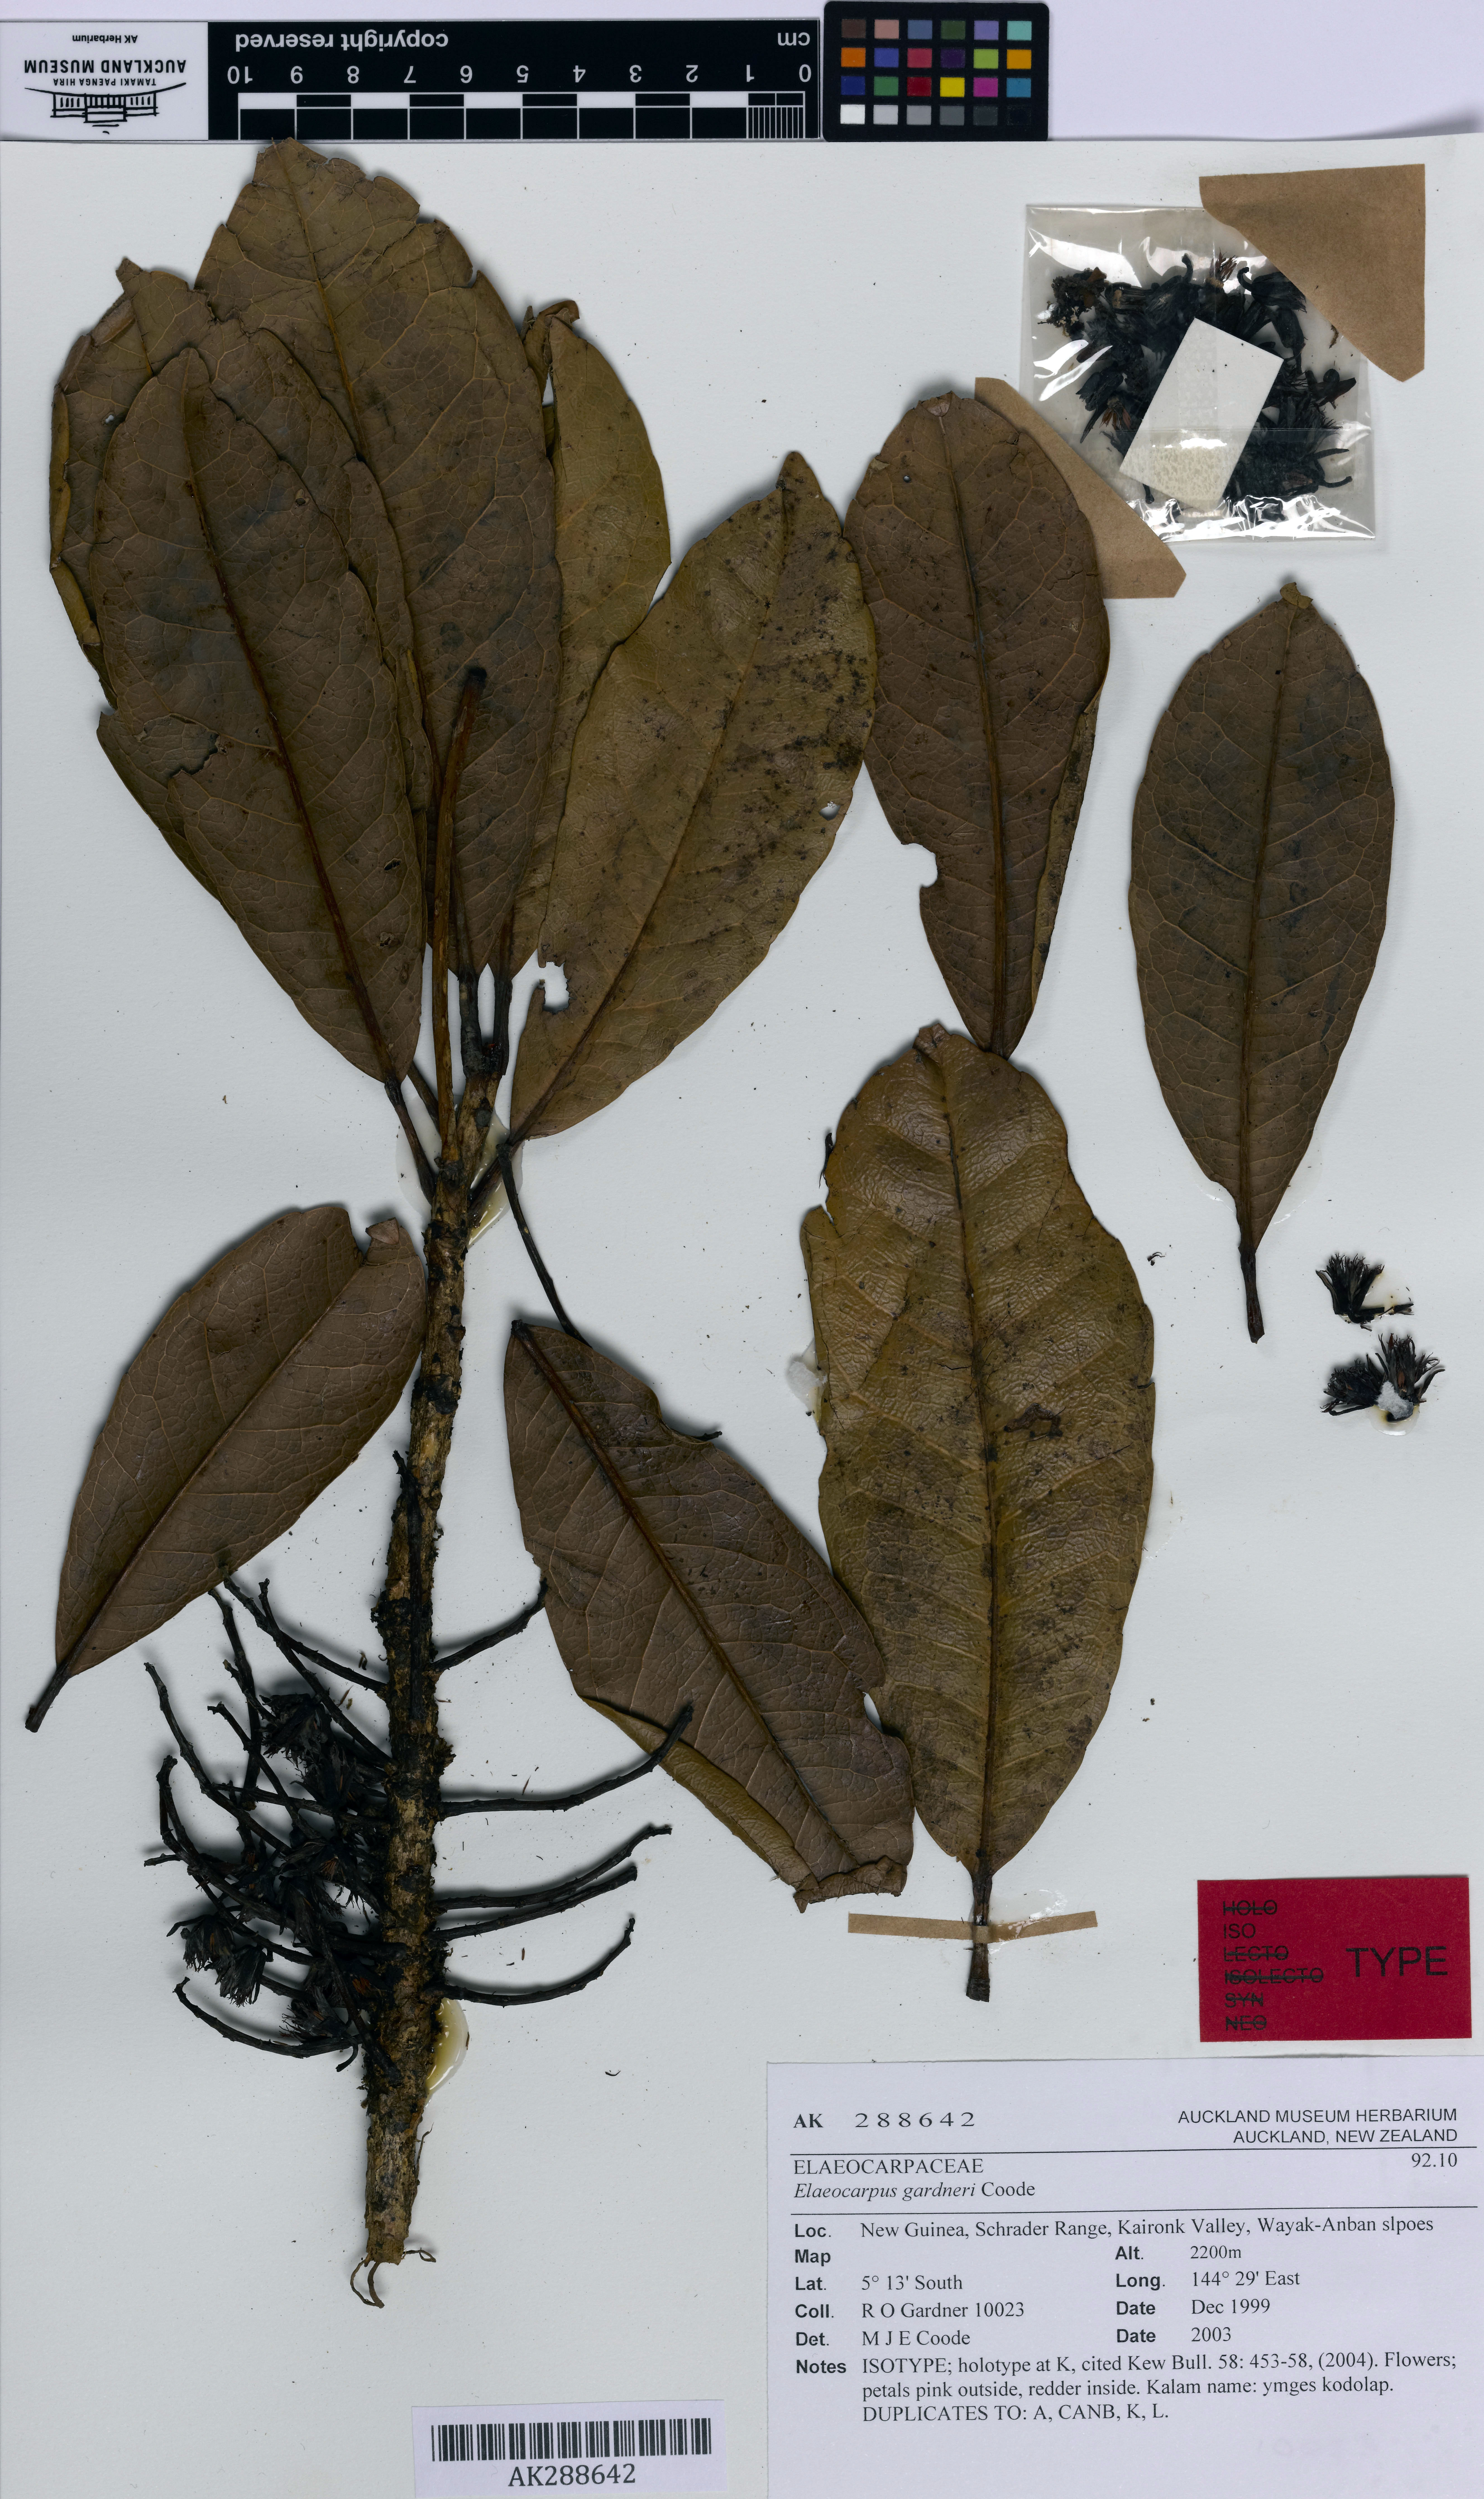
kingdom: Plantae
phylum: Tracheophyta
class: Magnoliopsida
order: Oxalidales
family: Elaeocarpaceae
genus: Elaeocarpus
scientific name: Elaeocarpus gardneri
